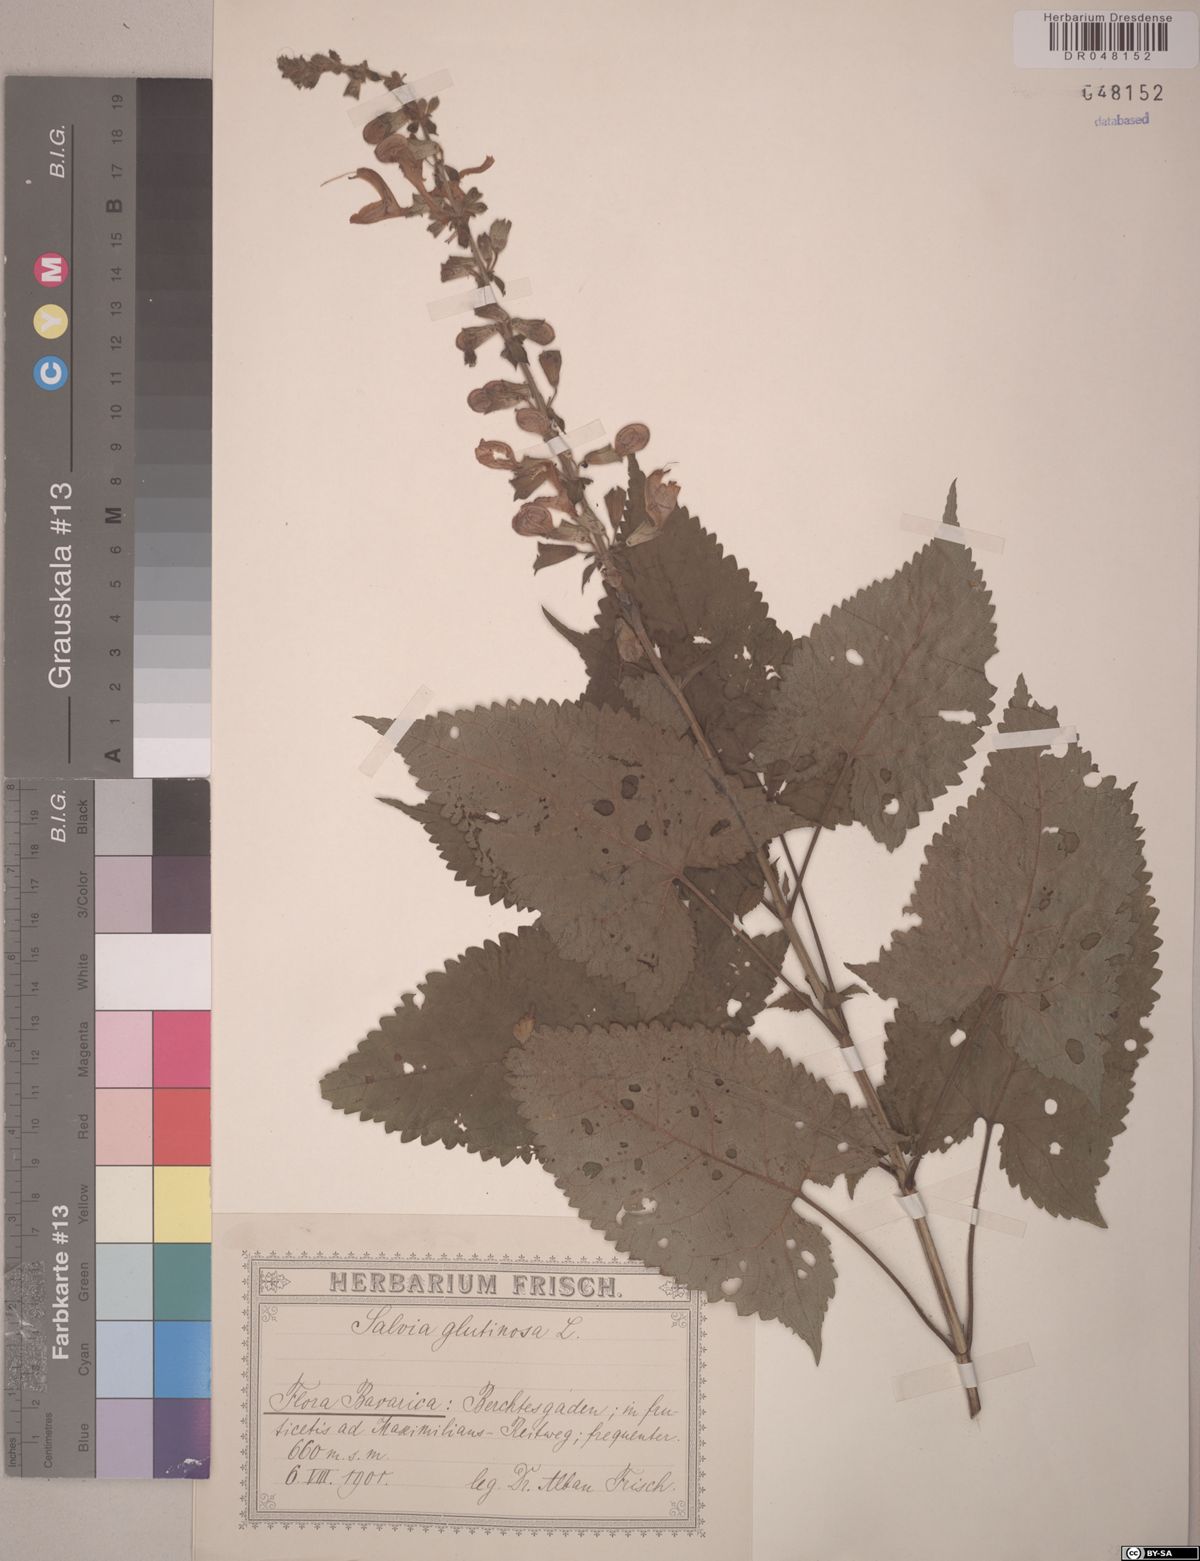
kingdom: Plantae
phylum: Tracheophyta
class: Magnoliopsida
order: Lamiales
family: Lamiaceae
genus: Salvia
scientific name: Salvia glutinosa
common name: Sticky clary
